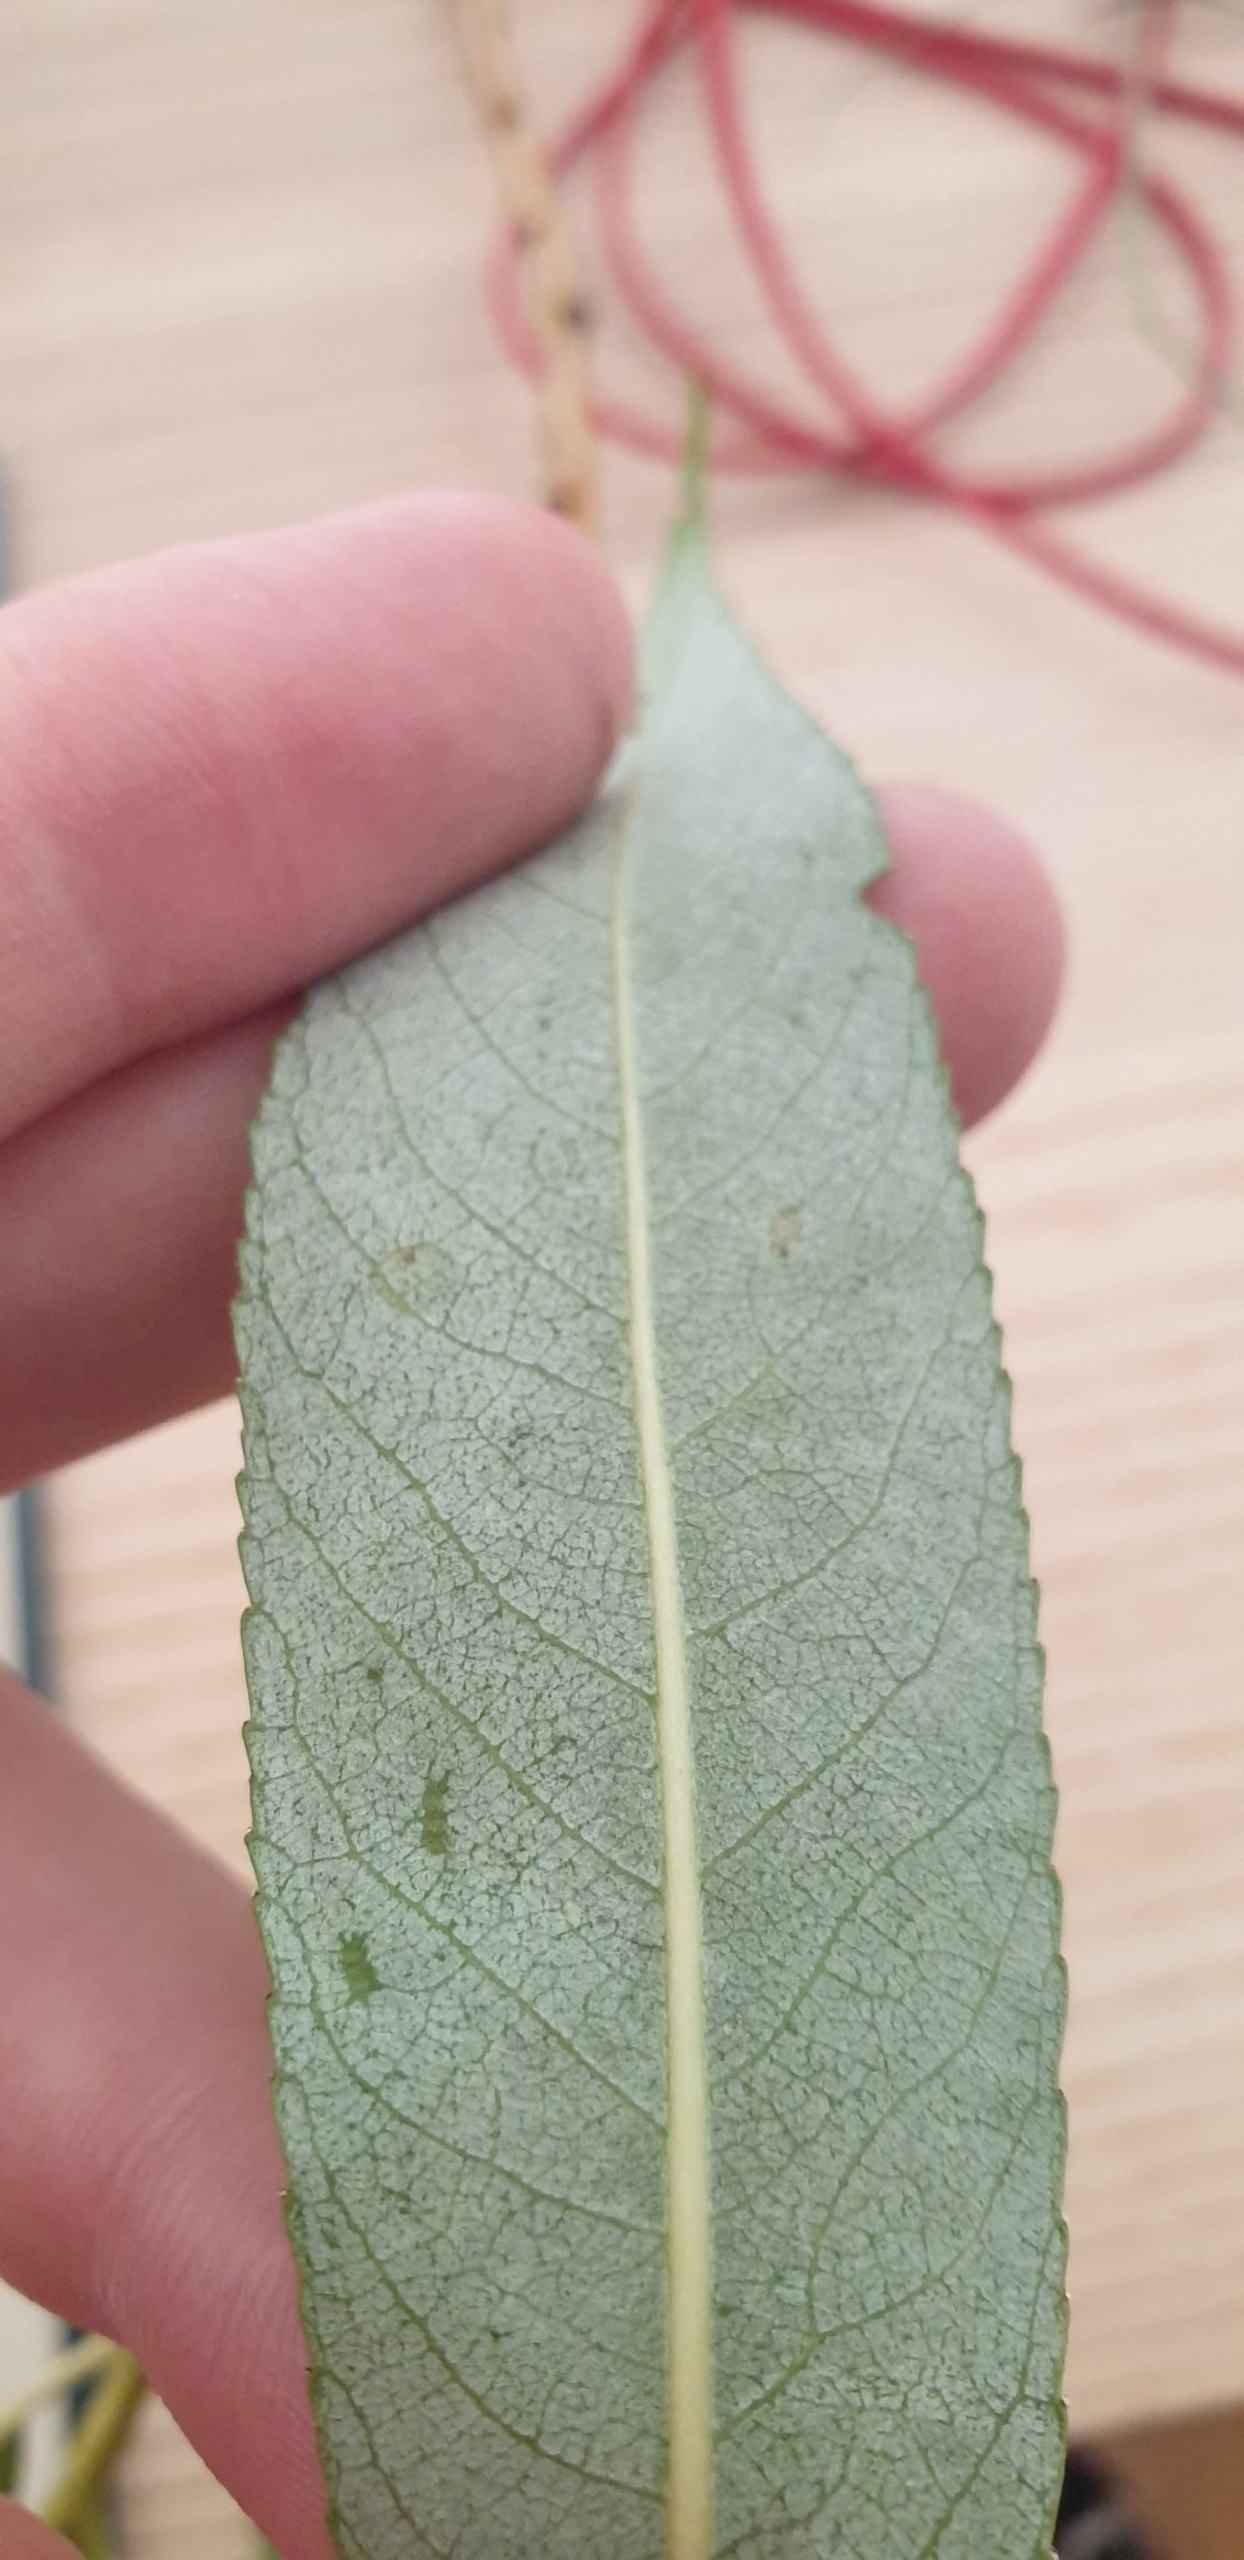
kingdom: Plantae
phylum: Tracheophyta
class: Magnoliopsida
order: Malpighiales
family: Salicaceae
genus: Salix
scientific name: Salix fragilis
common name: Grøn pil
